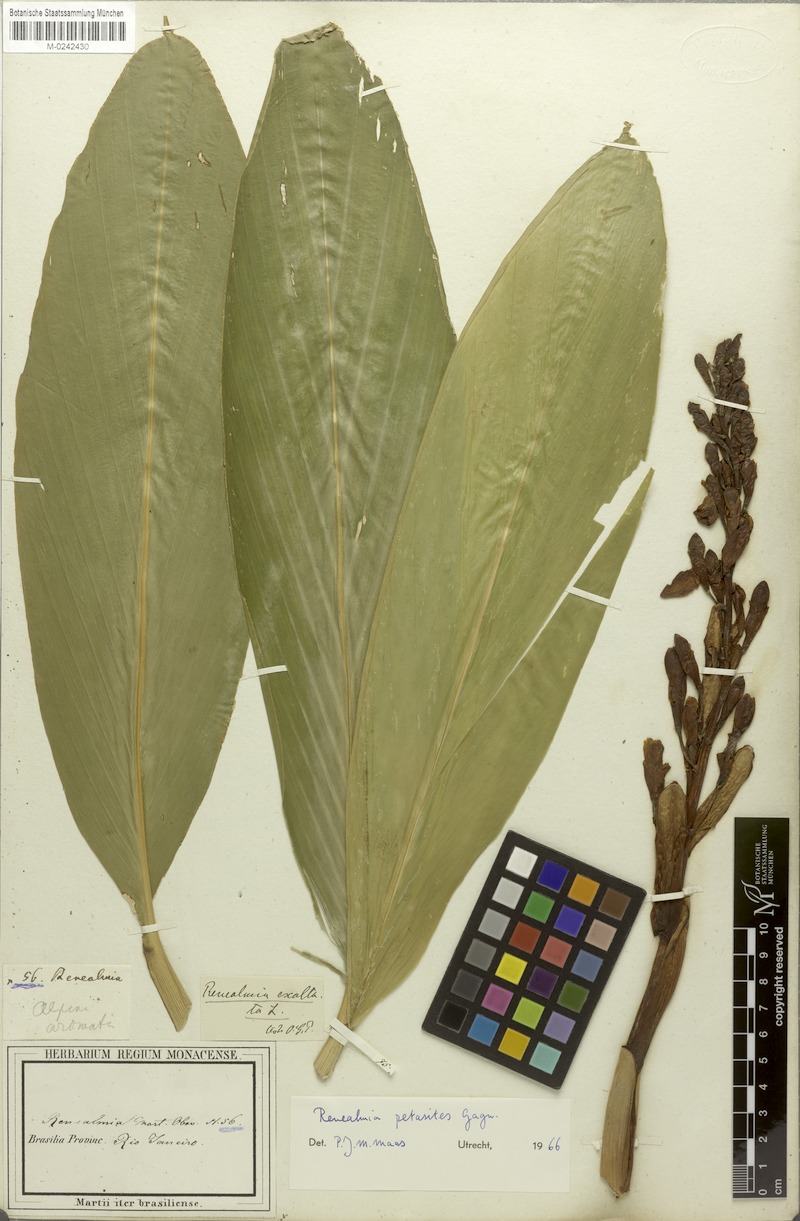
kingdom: Plantae
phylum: Tracheophyta
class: Liliopsida
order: Zingiberales
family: Zingiberaceae
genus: Renealmia
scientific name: Renealmia chrysotricha
